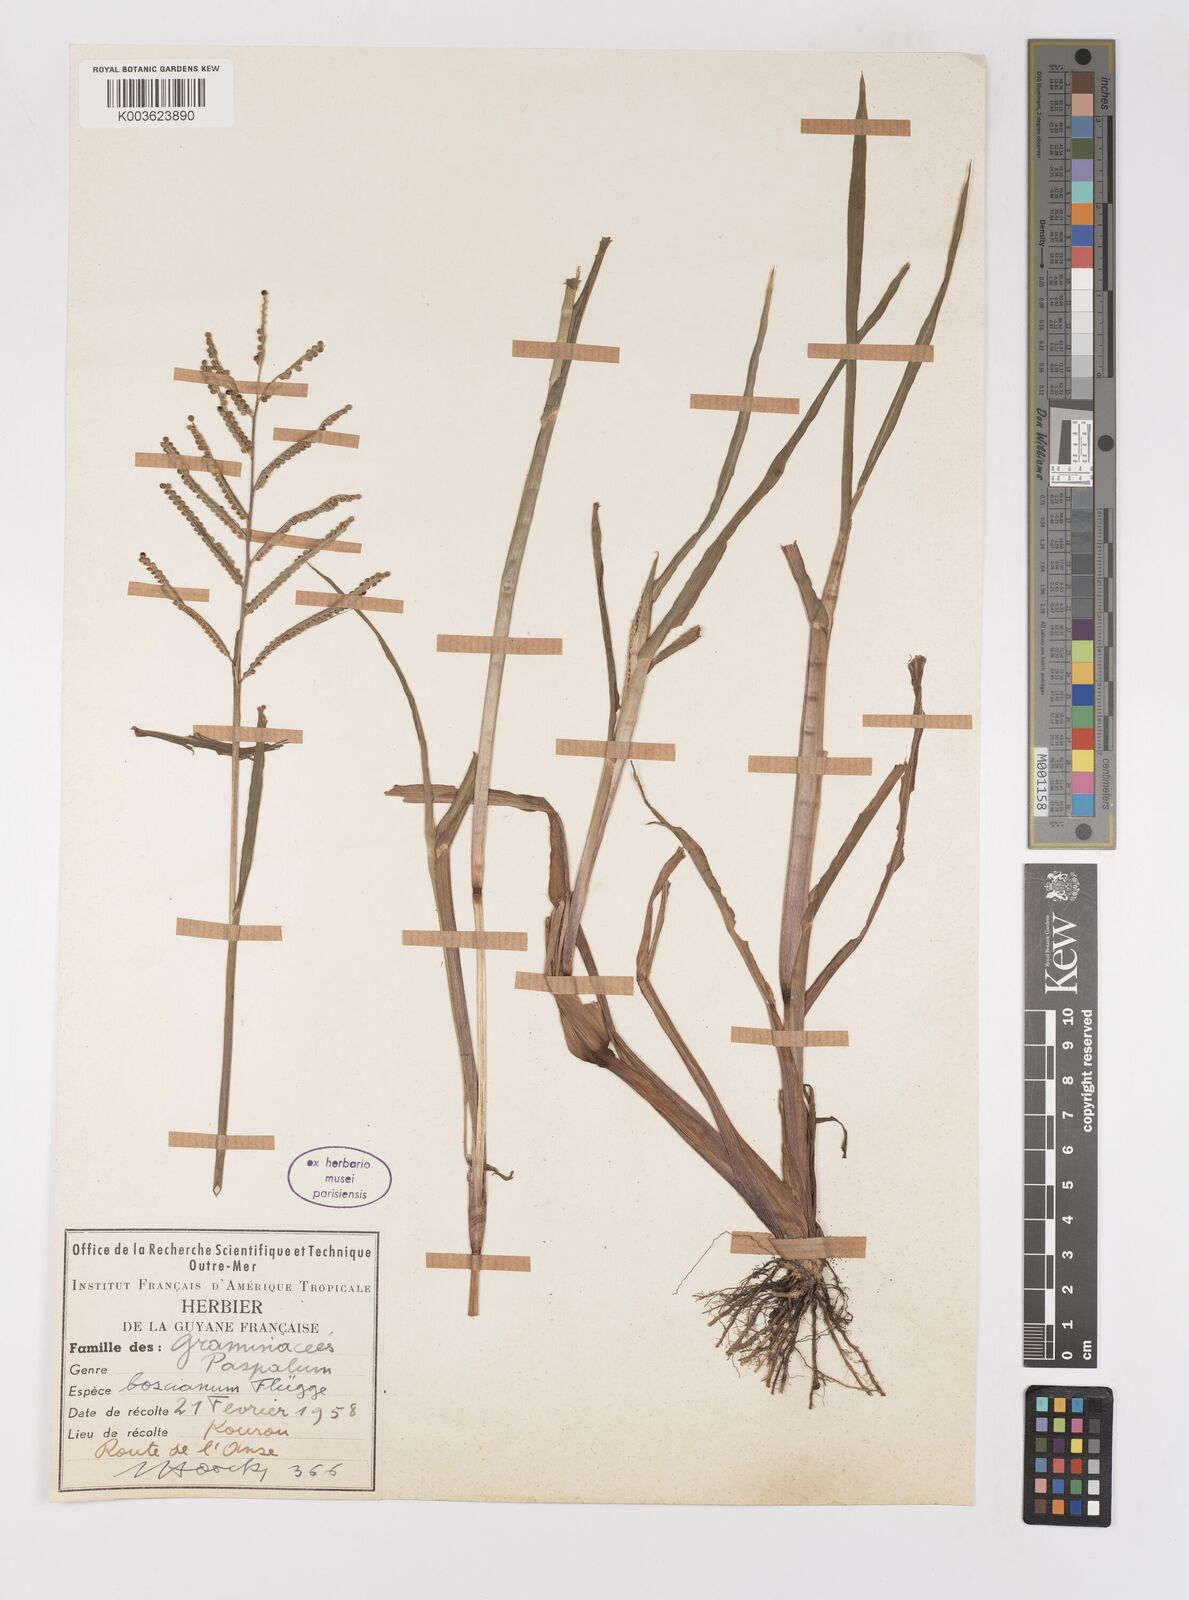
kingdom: Plantae
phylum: Tracheophyta
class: Liliopsida
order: Poales
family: Poaceae
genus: Paspalum
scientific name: Paspalum scrobiculatum
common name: Kodo millet
